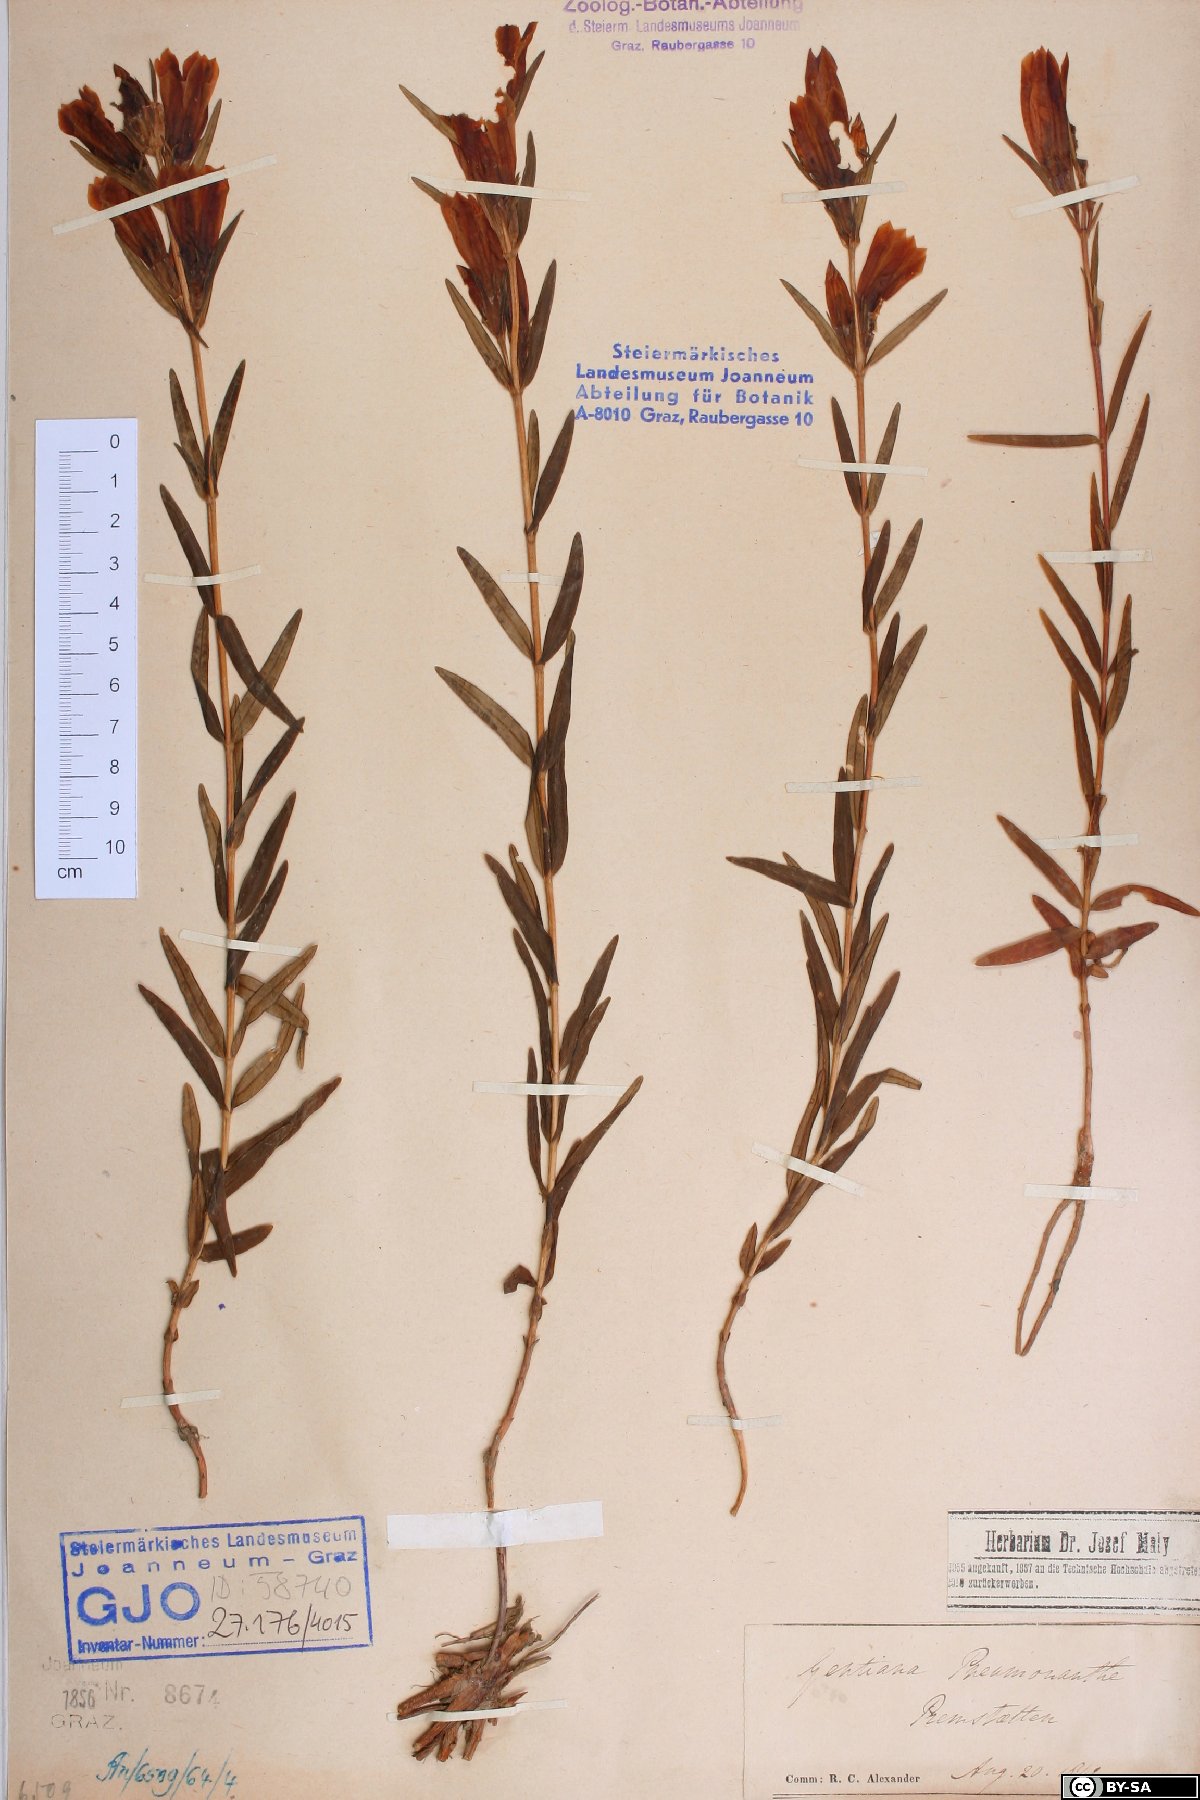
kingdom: Plantae
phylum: Tracheophyta
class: Magnoliopsida
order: Gentianales
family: Gentianaceae
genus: Gentiana
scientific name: Gentiana pneumonanthe
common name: Marsh gentian
